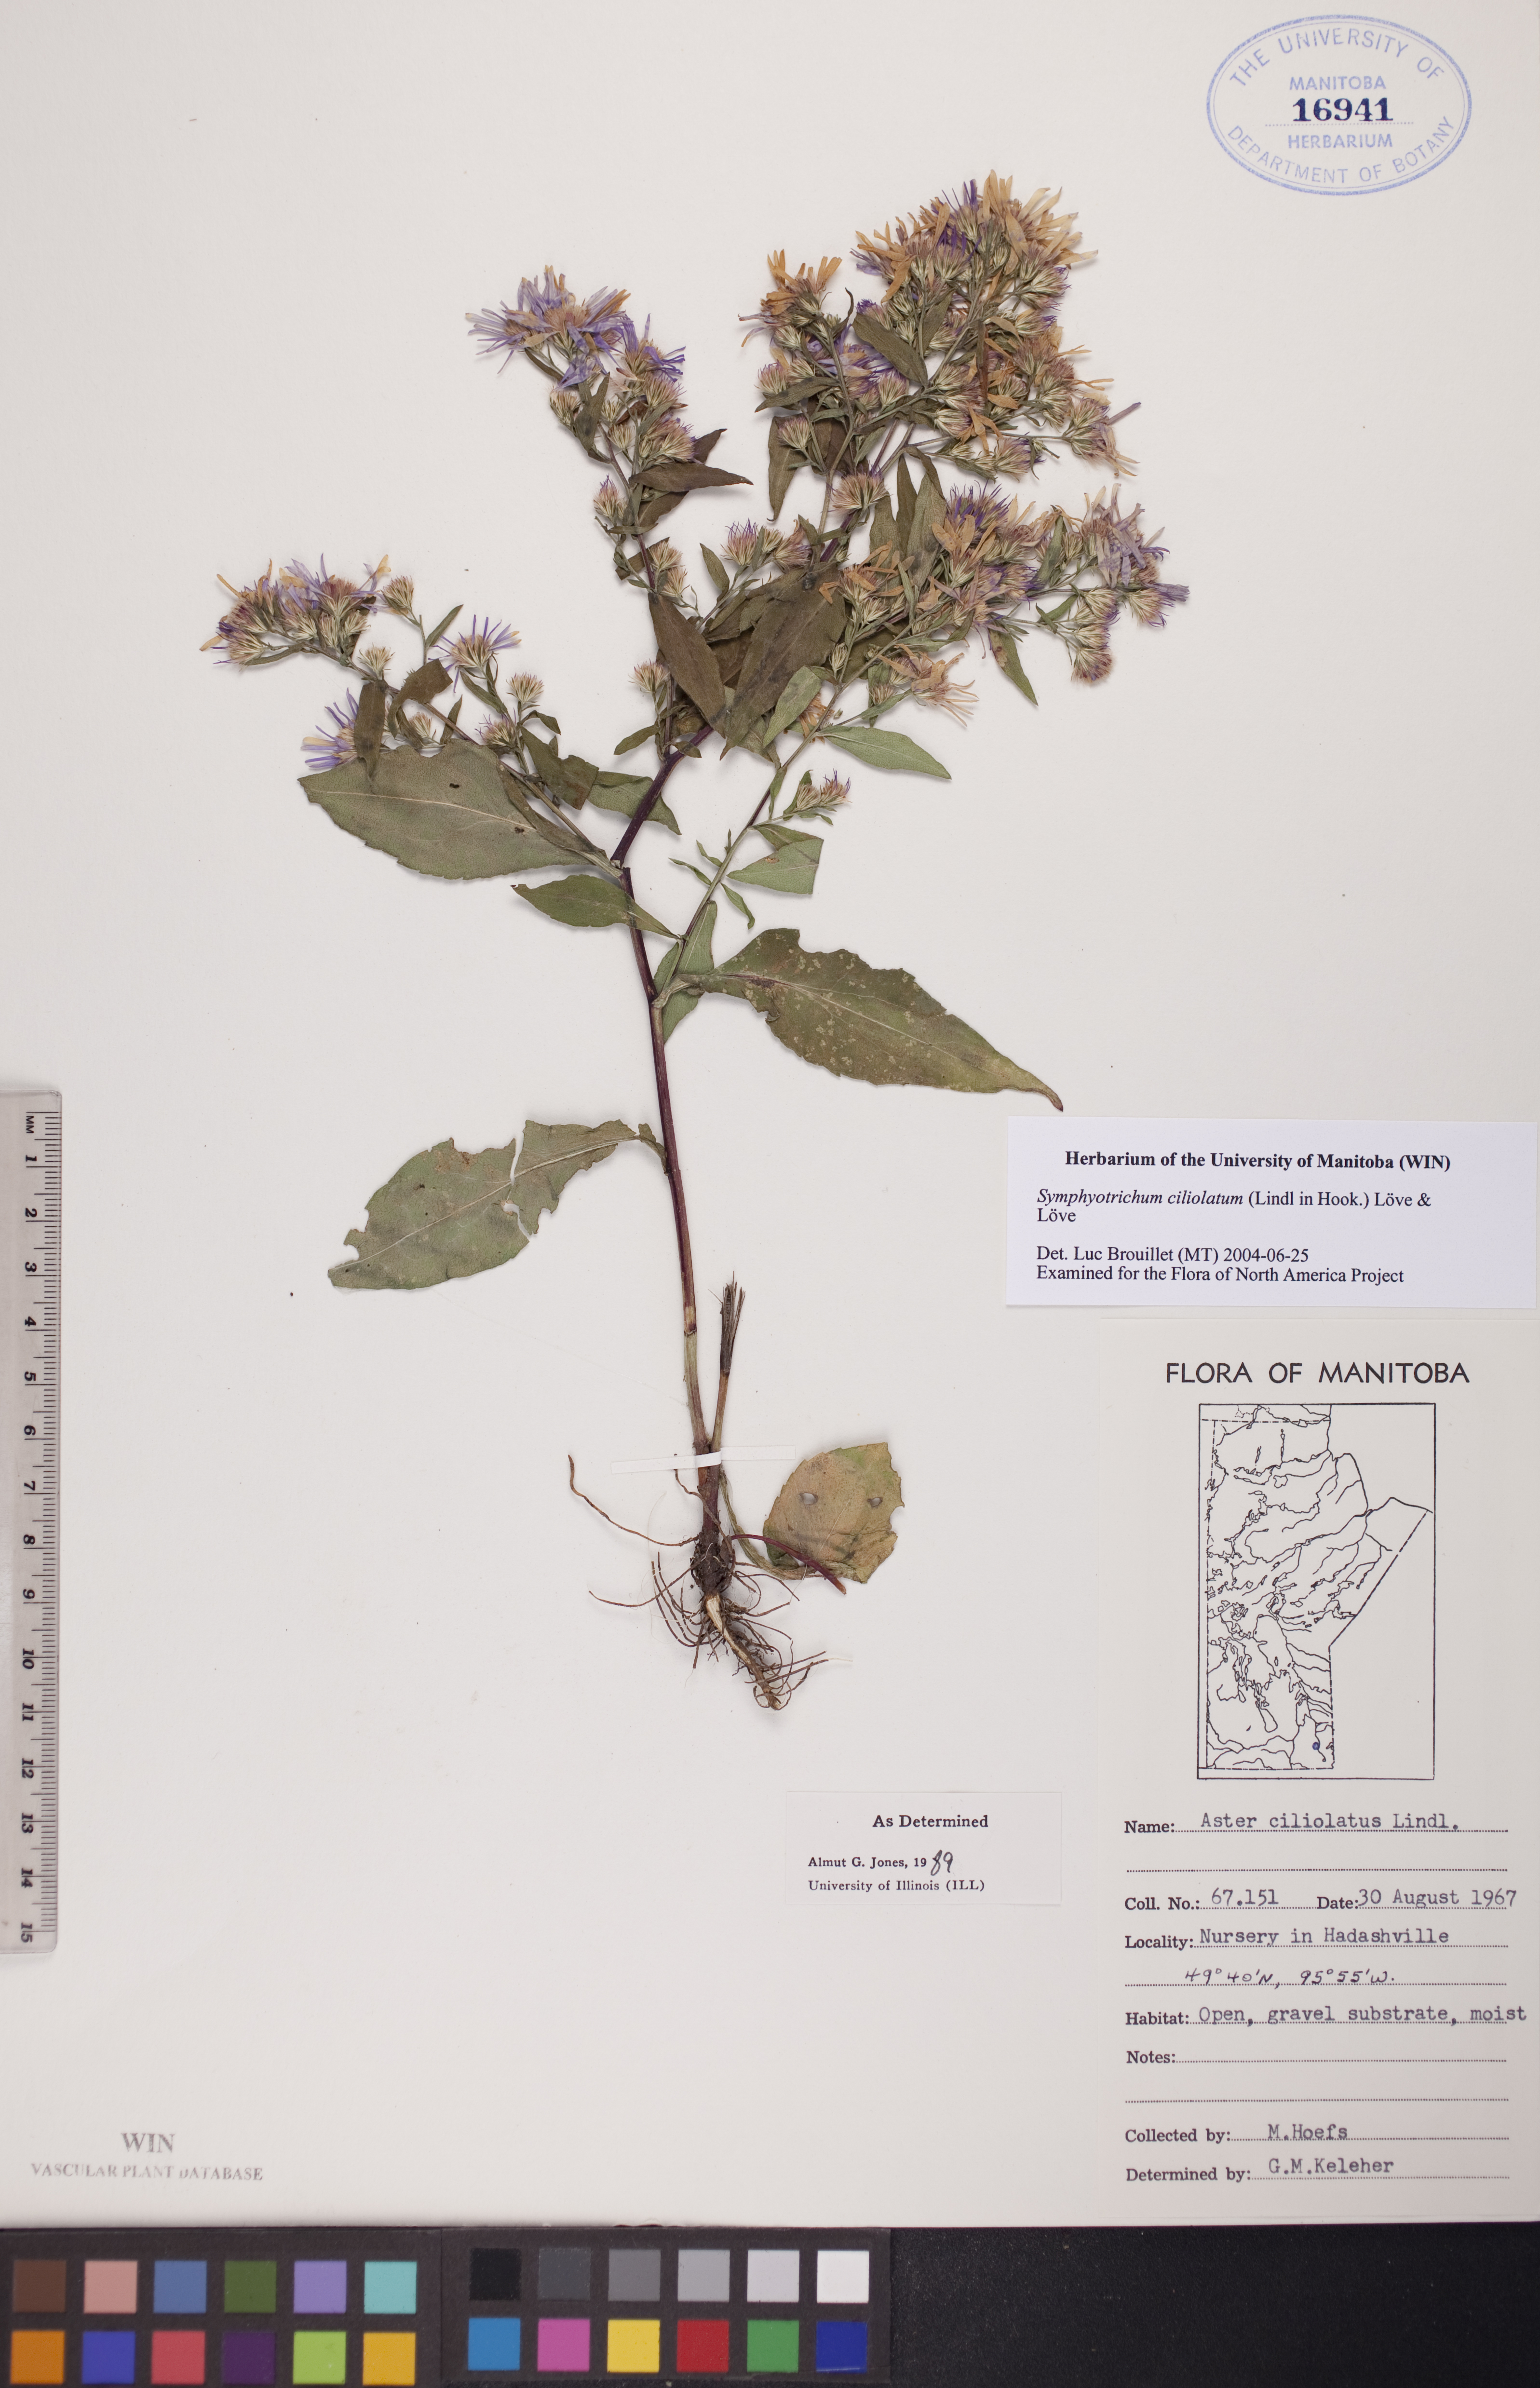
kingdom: Plantae
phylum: Tracheophyta
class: Magnoliopsida
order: Asterales
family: Asteraceae
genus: Symphyotrichum
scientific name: Symphyotrichum ciliolatum
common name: Fringed blue aster
